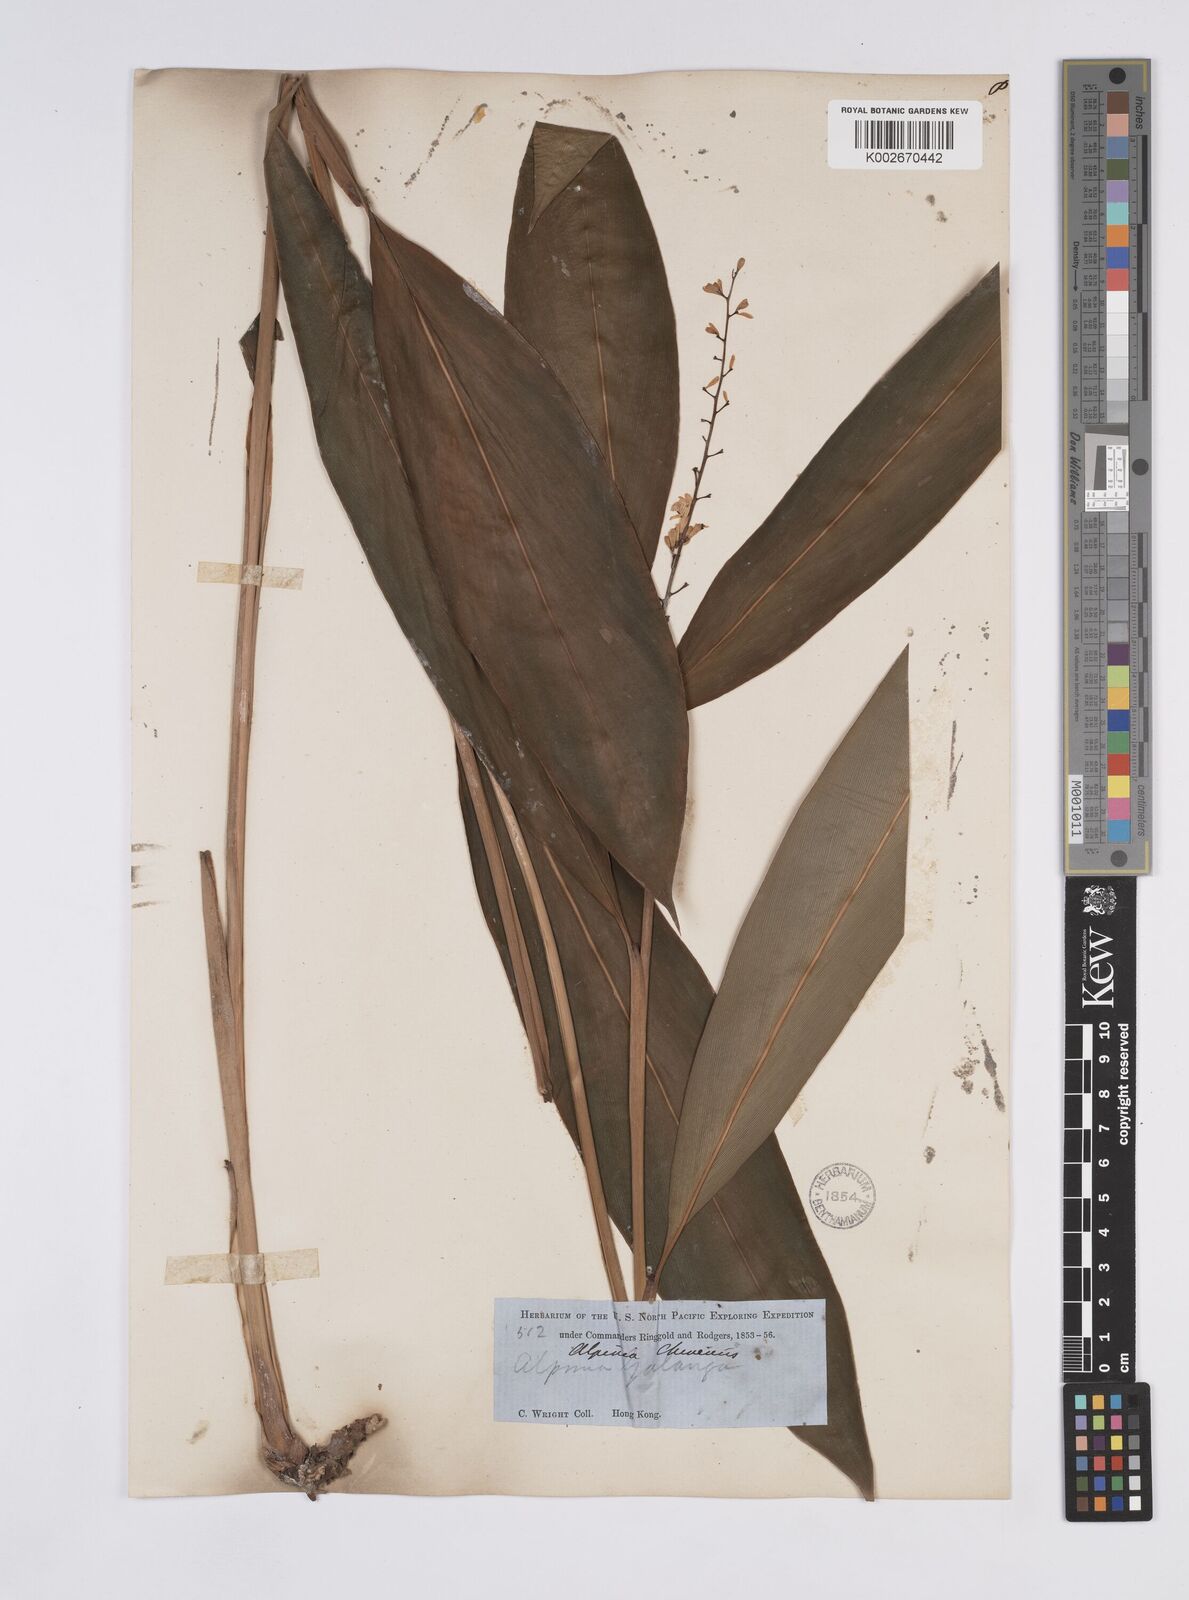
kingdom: Plantae
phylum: Tracheophyta
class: Liliopsida
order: Zingiberales
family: Zingiberaceae
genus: Alpinia
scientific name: Alpinia chinensis
